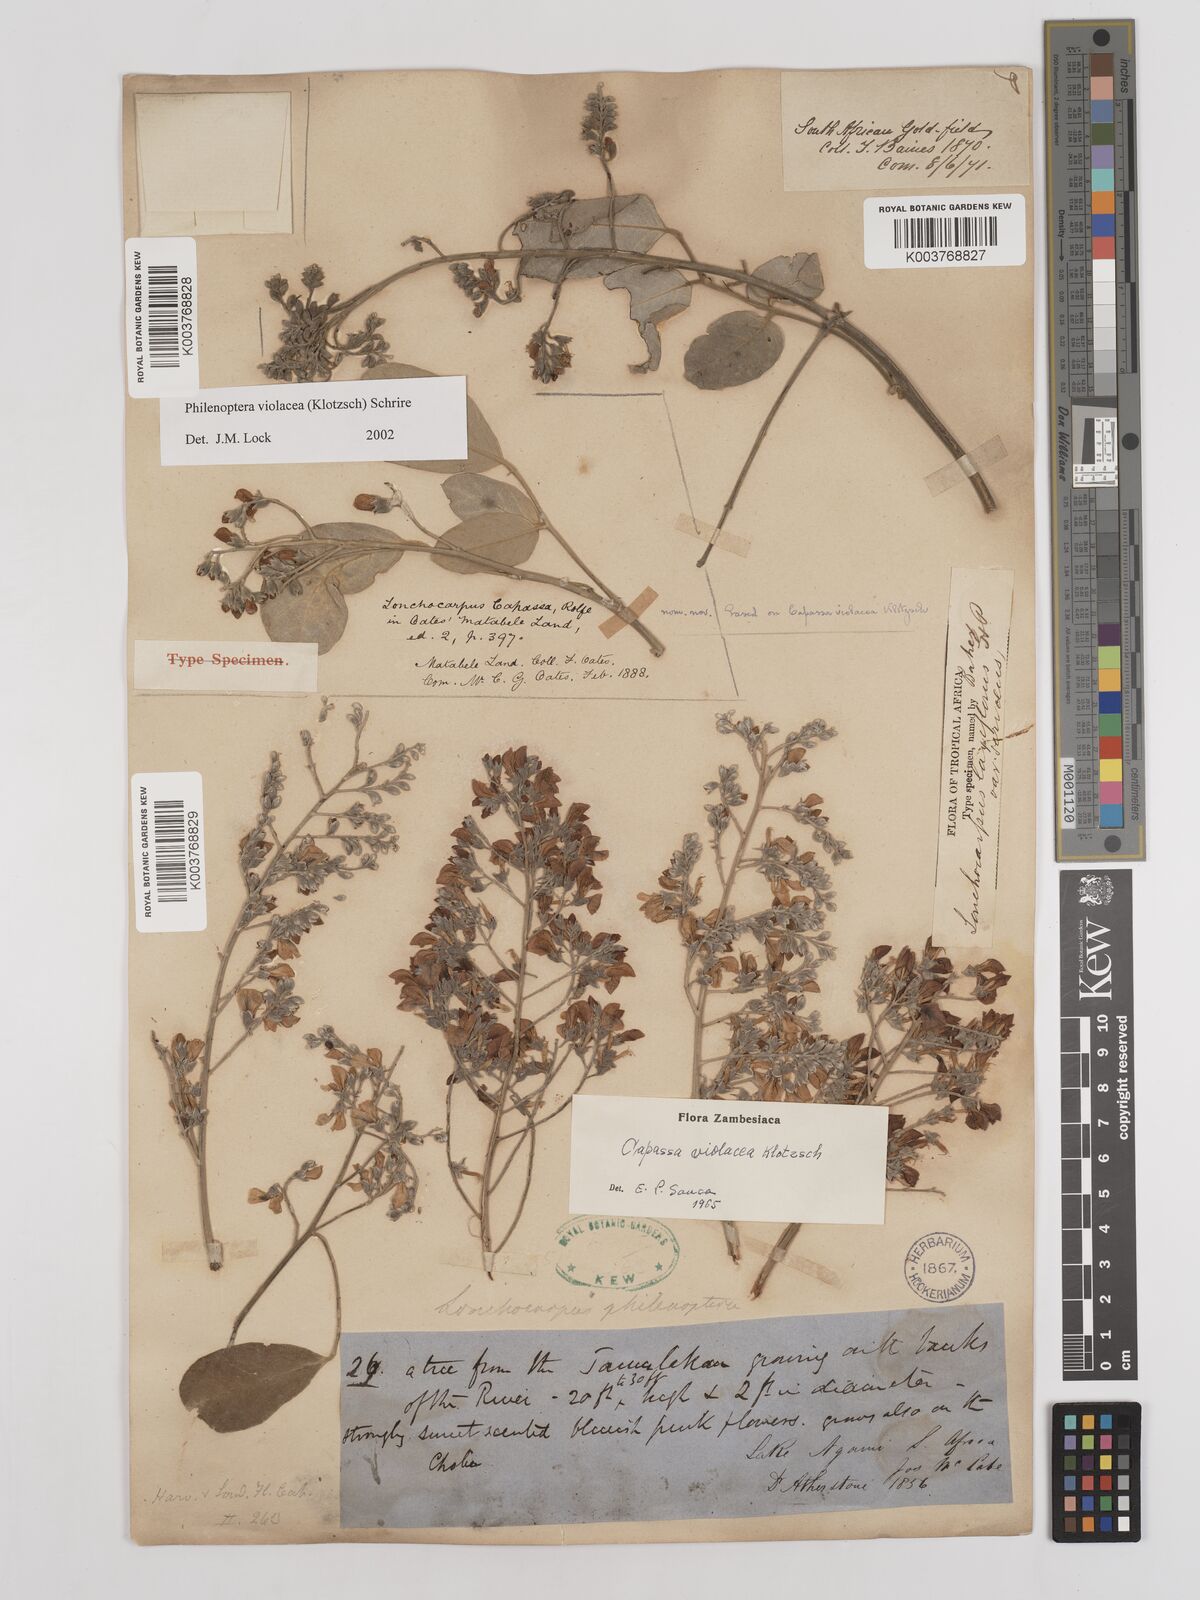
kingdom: Plantae
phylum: Tracheophyta
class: Magnoliopsida
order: Fabales
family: Fabaceae
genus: Philenoptera
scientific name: Philenoptera violacea
